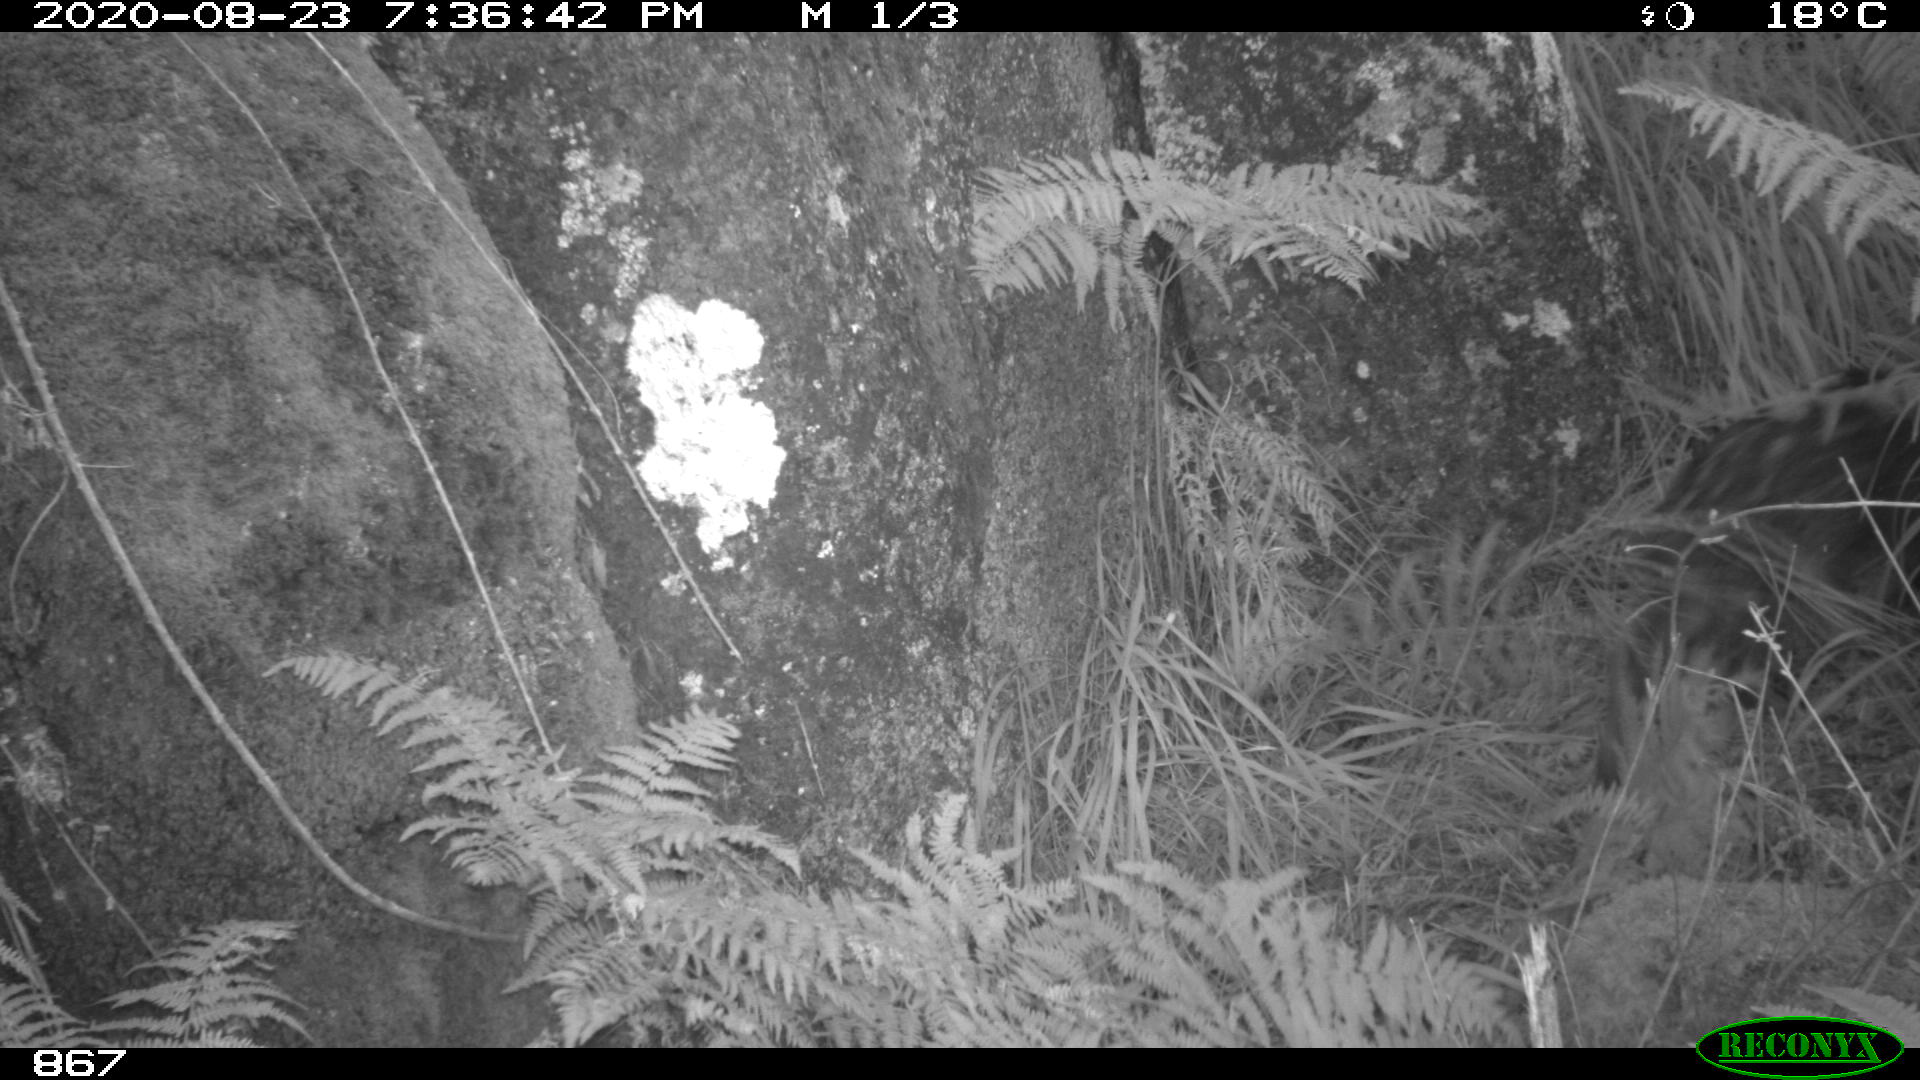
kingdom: Animalia
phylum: Chordata
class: Mammalia
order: Artiodactyla
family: Suidae
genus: Sus
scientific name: Sus scrofa
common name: Wild boar
